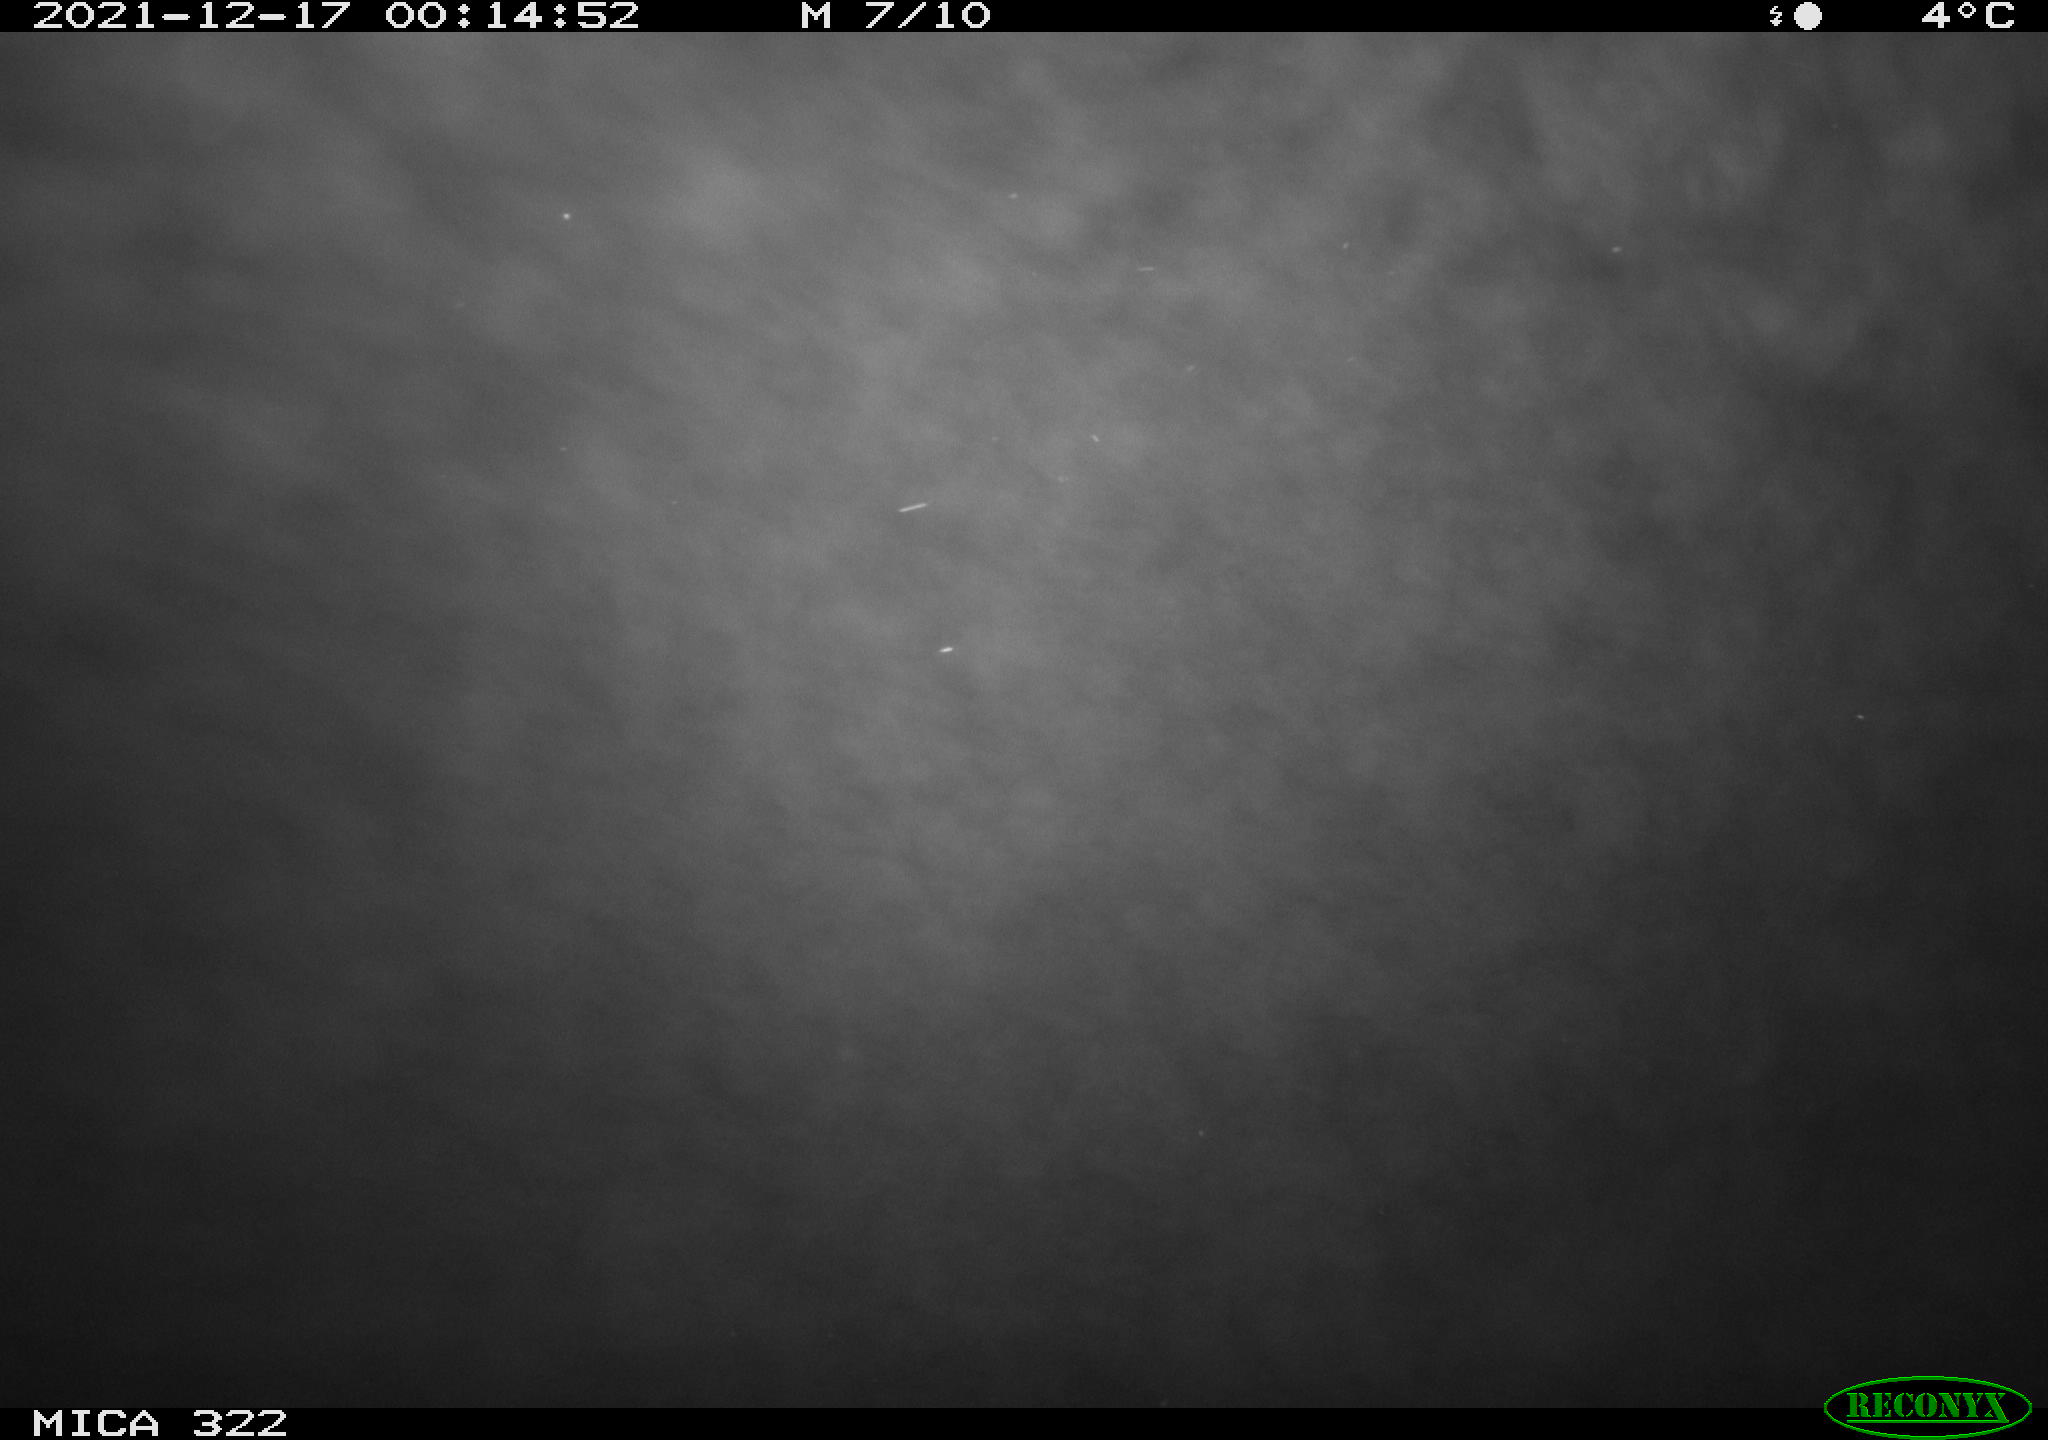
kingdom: Animalia
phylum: Chordata
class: Mammalia
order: Rodentia
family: Muridae
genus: Rattus
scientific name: Rattus norvegicus
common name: Brown rat
